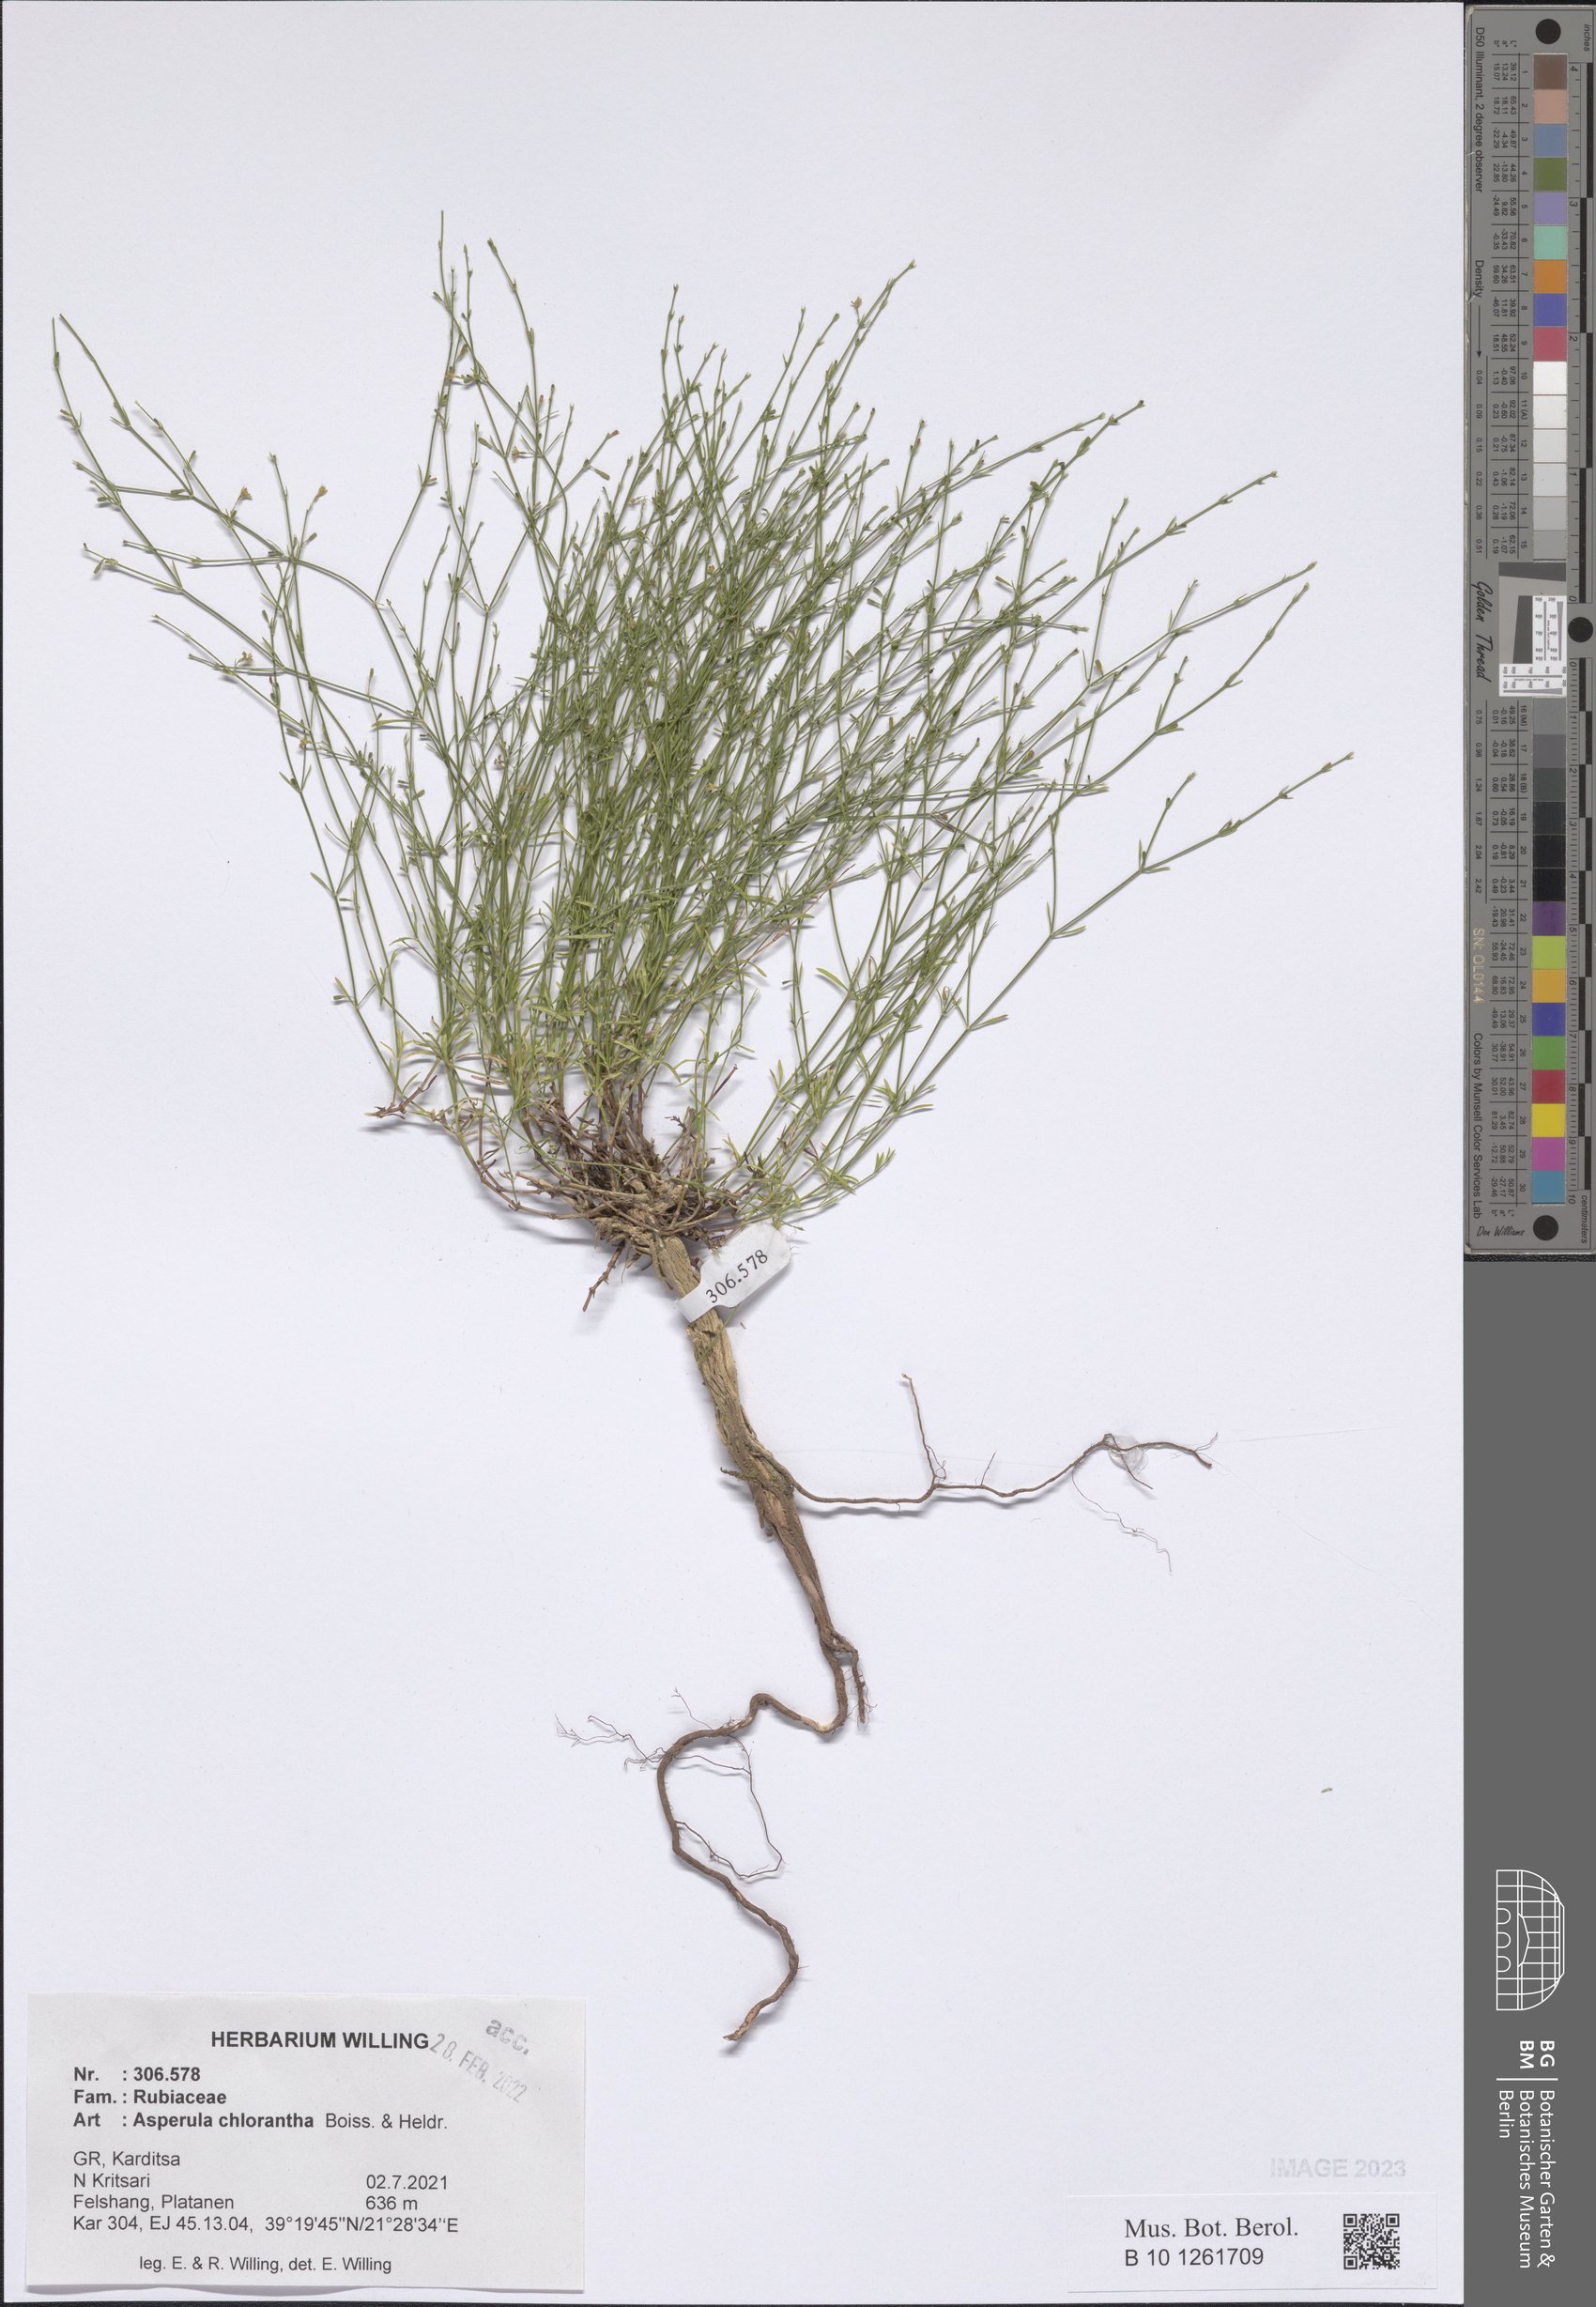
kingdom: Plantae
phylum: Tracheophyta
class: Magnoliopsida
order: Gentianales
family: Rubiaceae
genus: Thliphthisa
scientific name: Thliphthisa chlorantha
